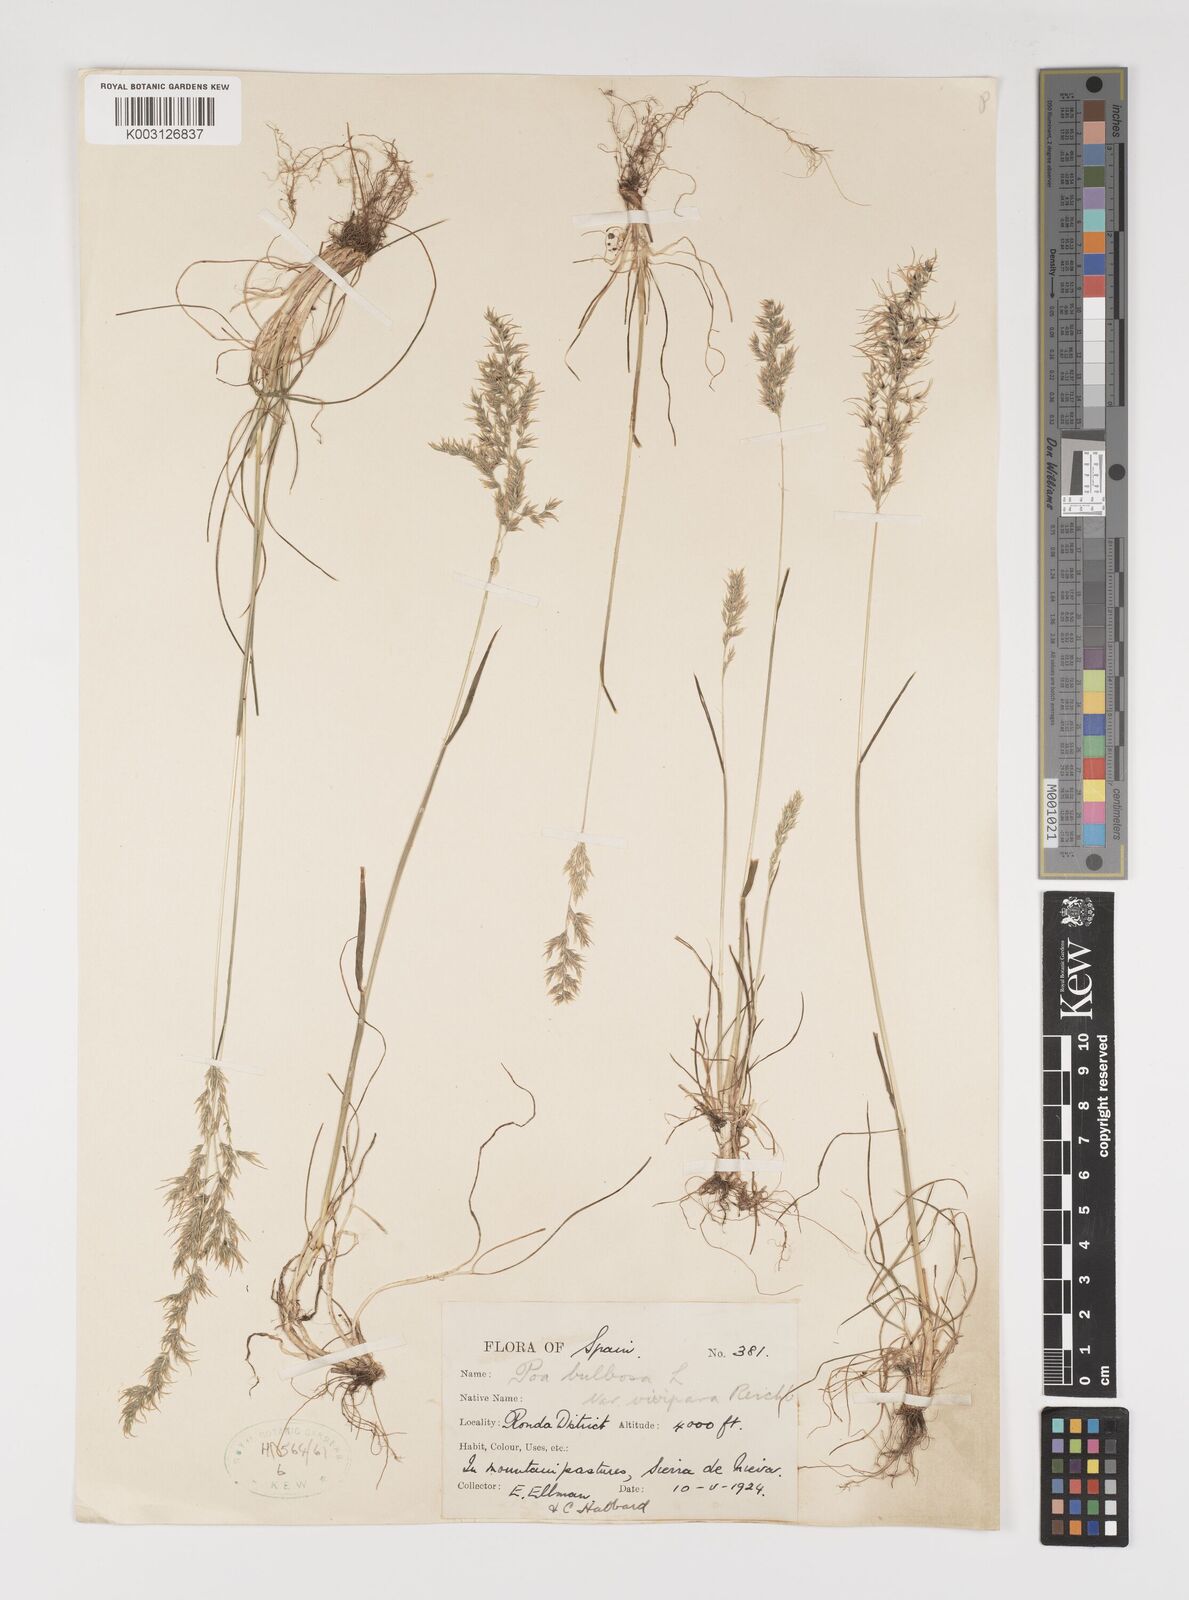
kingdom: Plantae
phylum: Tracheophyta
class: Liliopsida
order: Poales
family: Poaceae
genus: Poa
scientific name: Poa bulbosa
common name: Bulbous bluegrass
